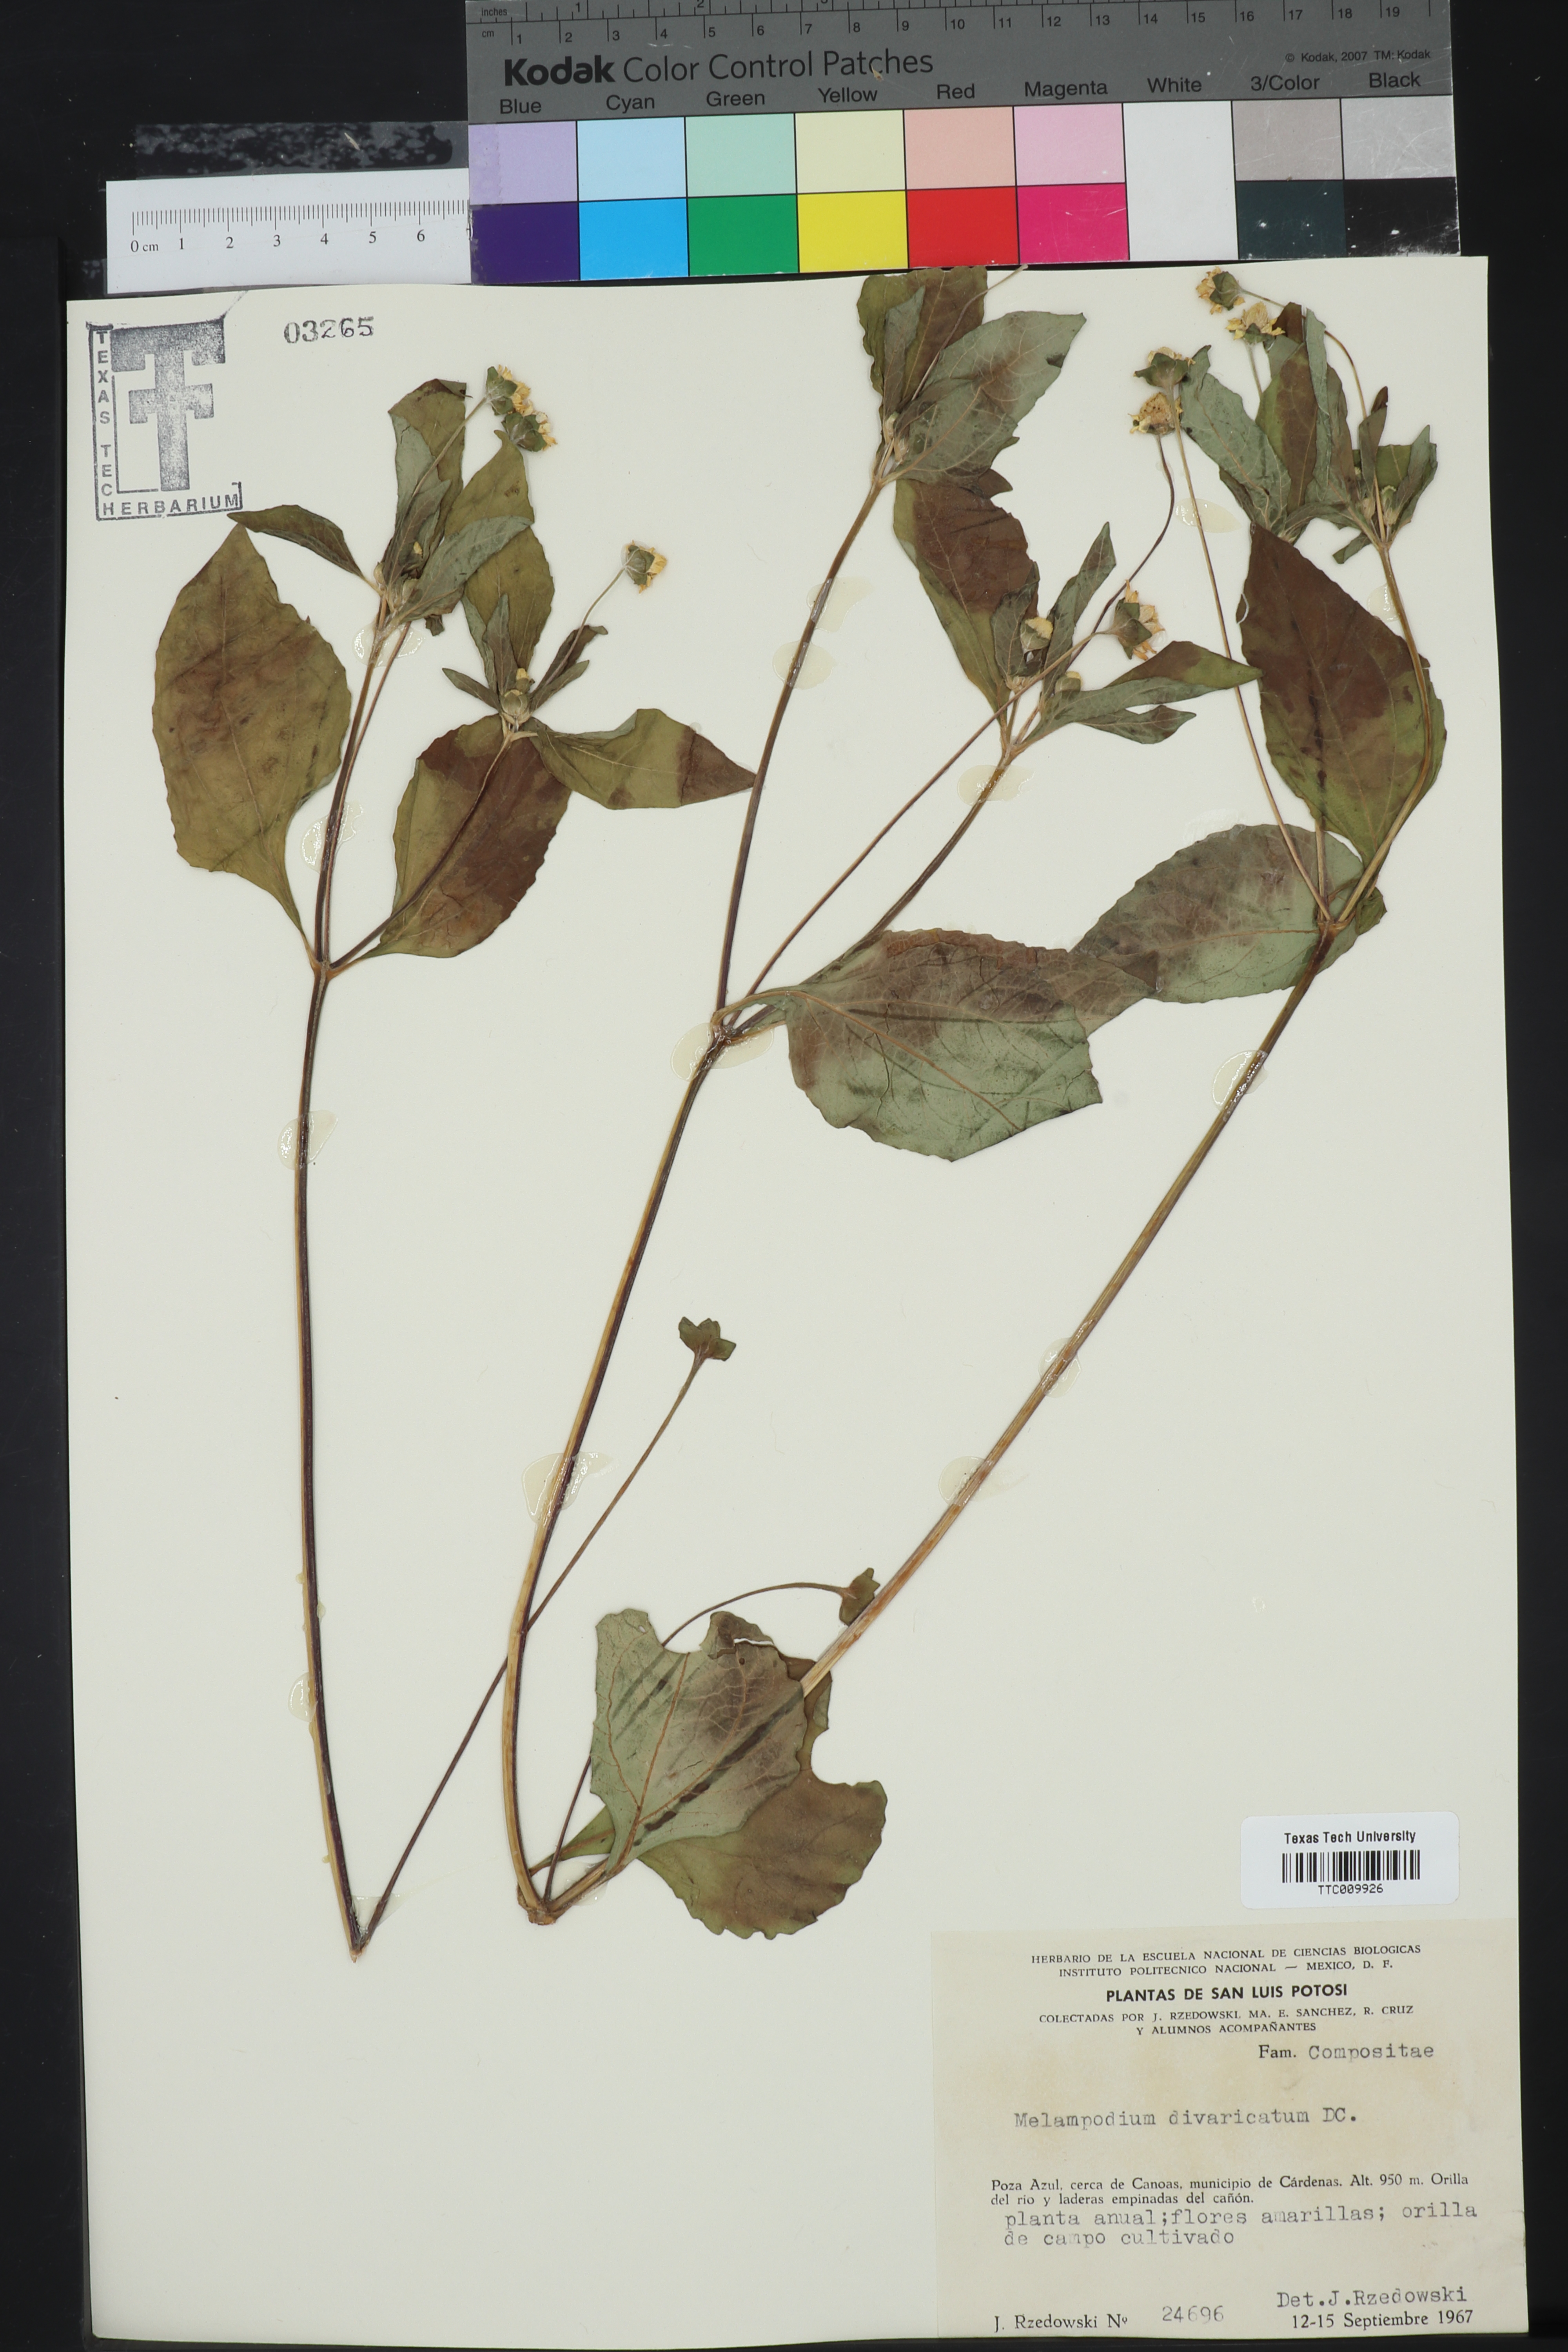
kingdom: Plantae
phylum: Tracheophyta
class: Magnoliopsida
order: Asterales
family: Asteraceae
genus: Melampodium
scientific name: Melampodium divaricatum
